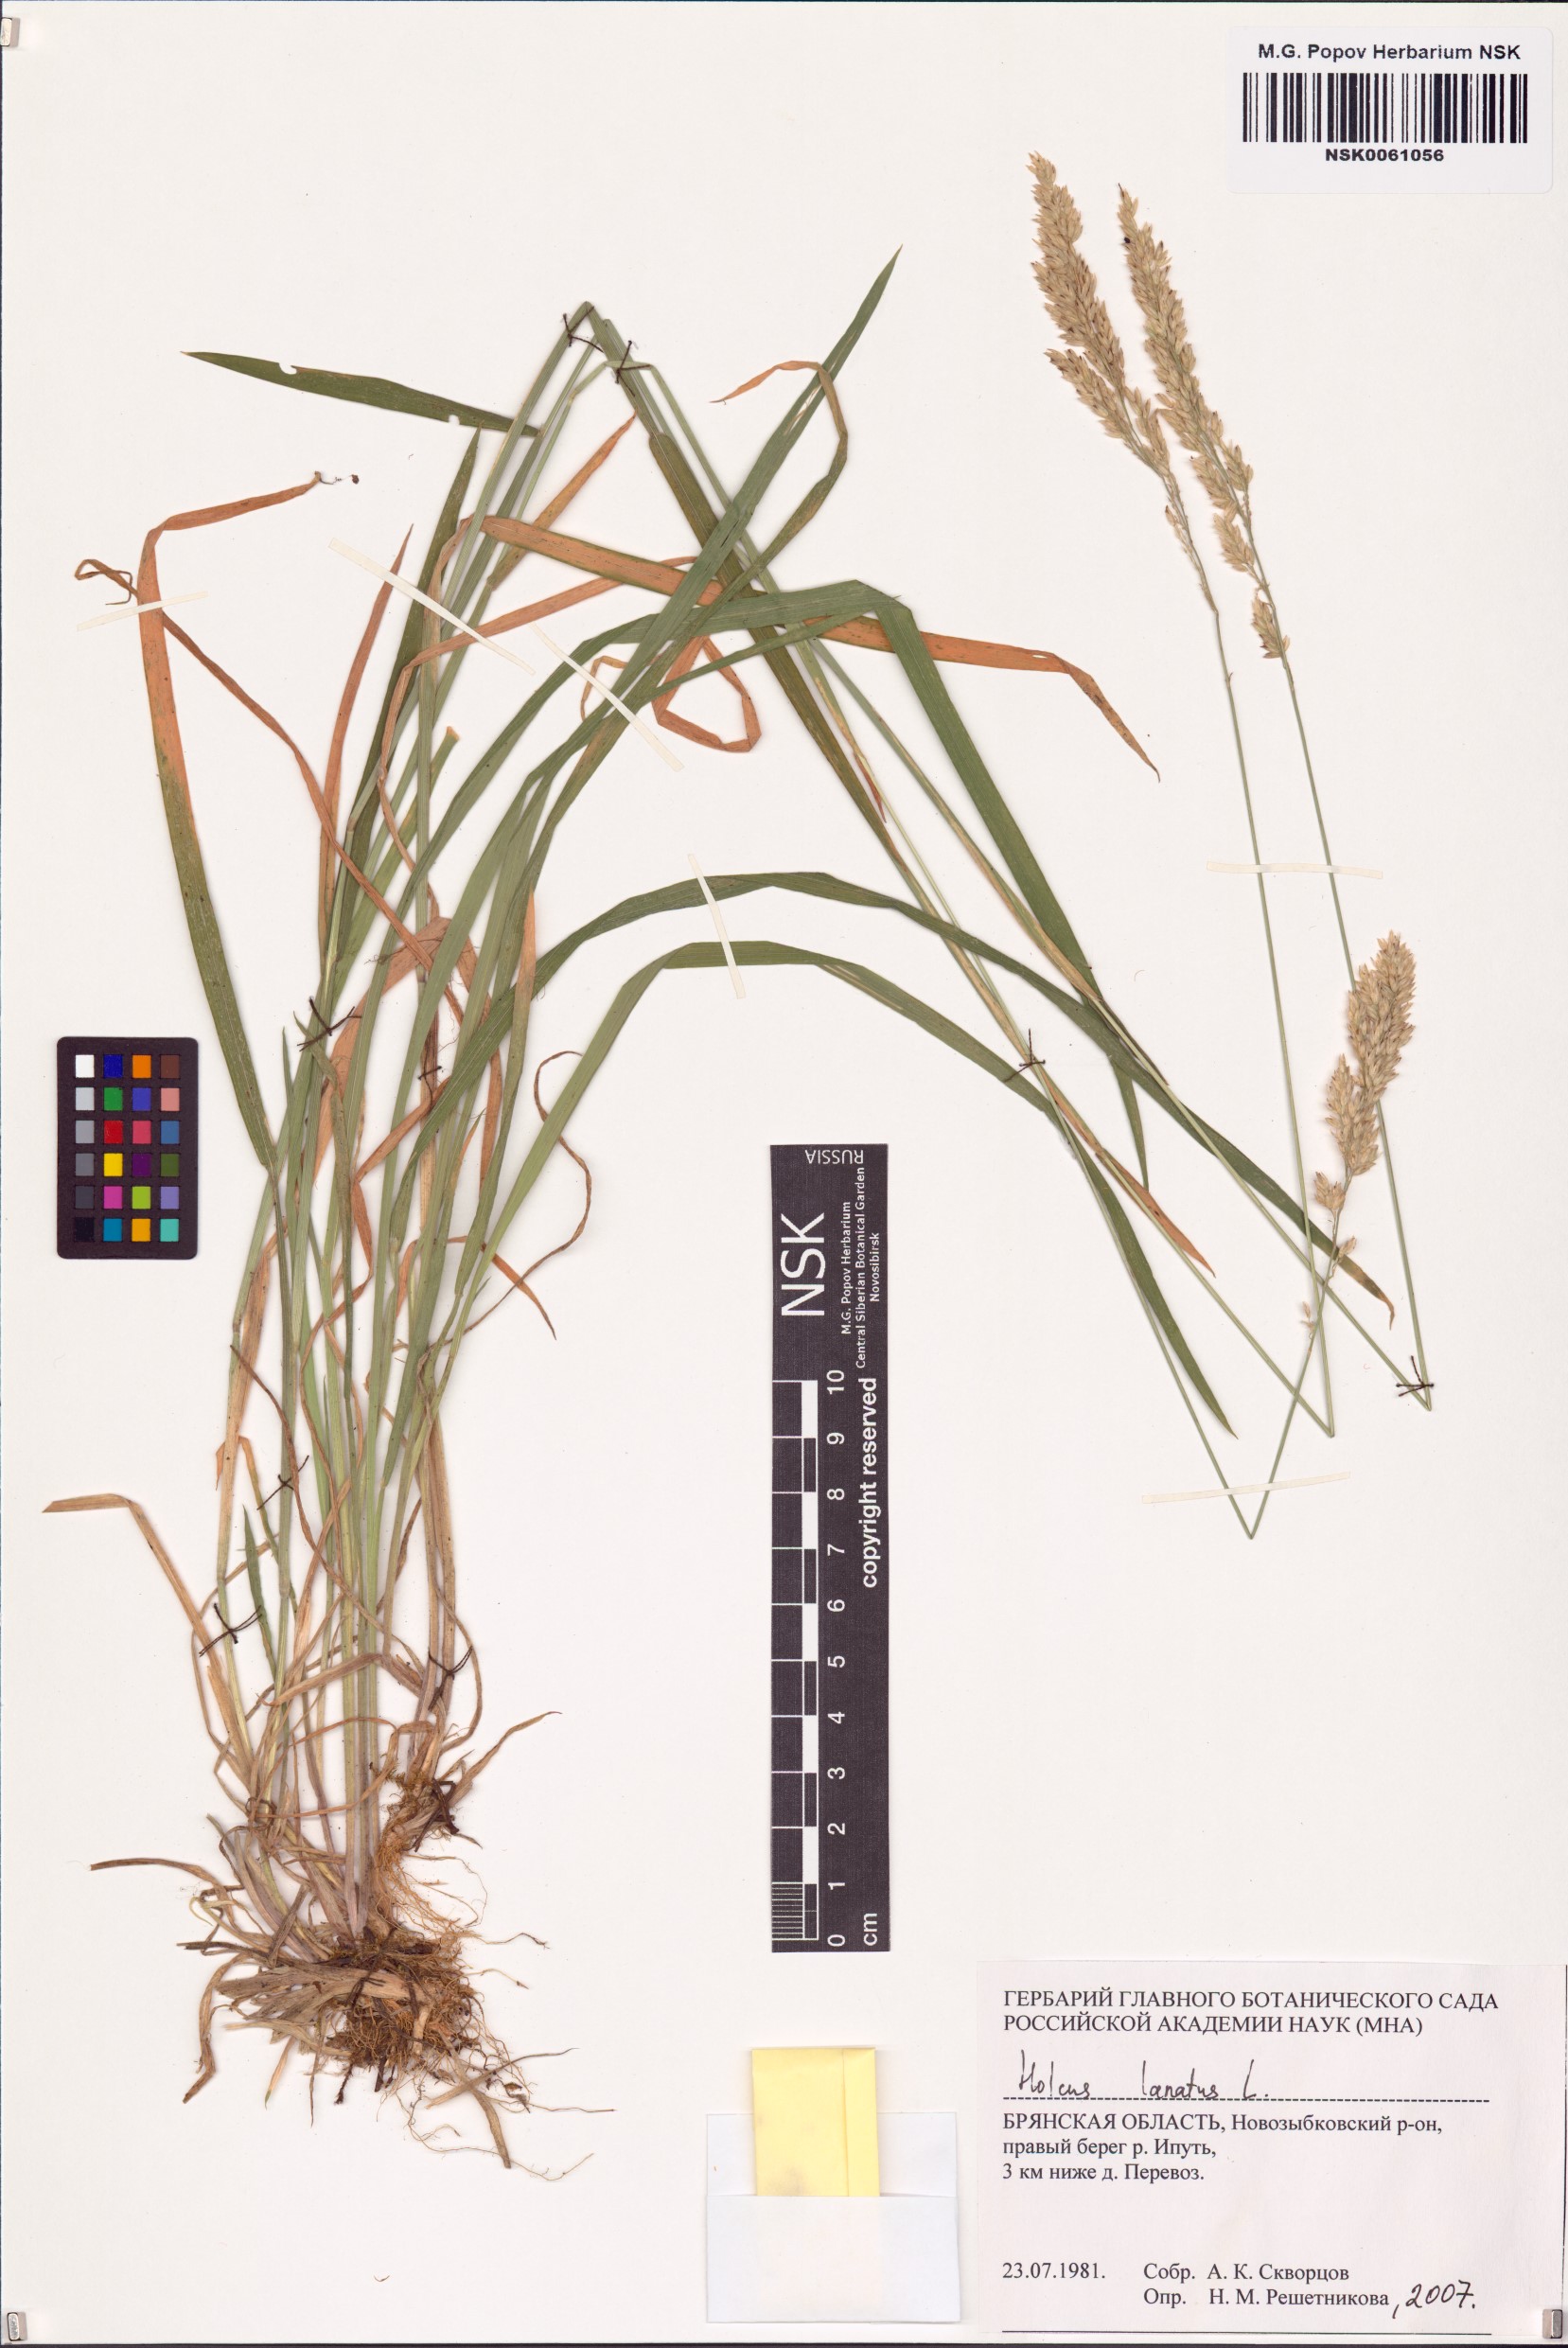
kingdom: Plantae
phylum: Tracheophyta
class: Liliopsida
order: Poales
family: Poaceae
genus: Holcus
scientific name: Holcus lanatus
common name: Yorkshire-fog
